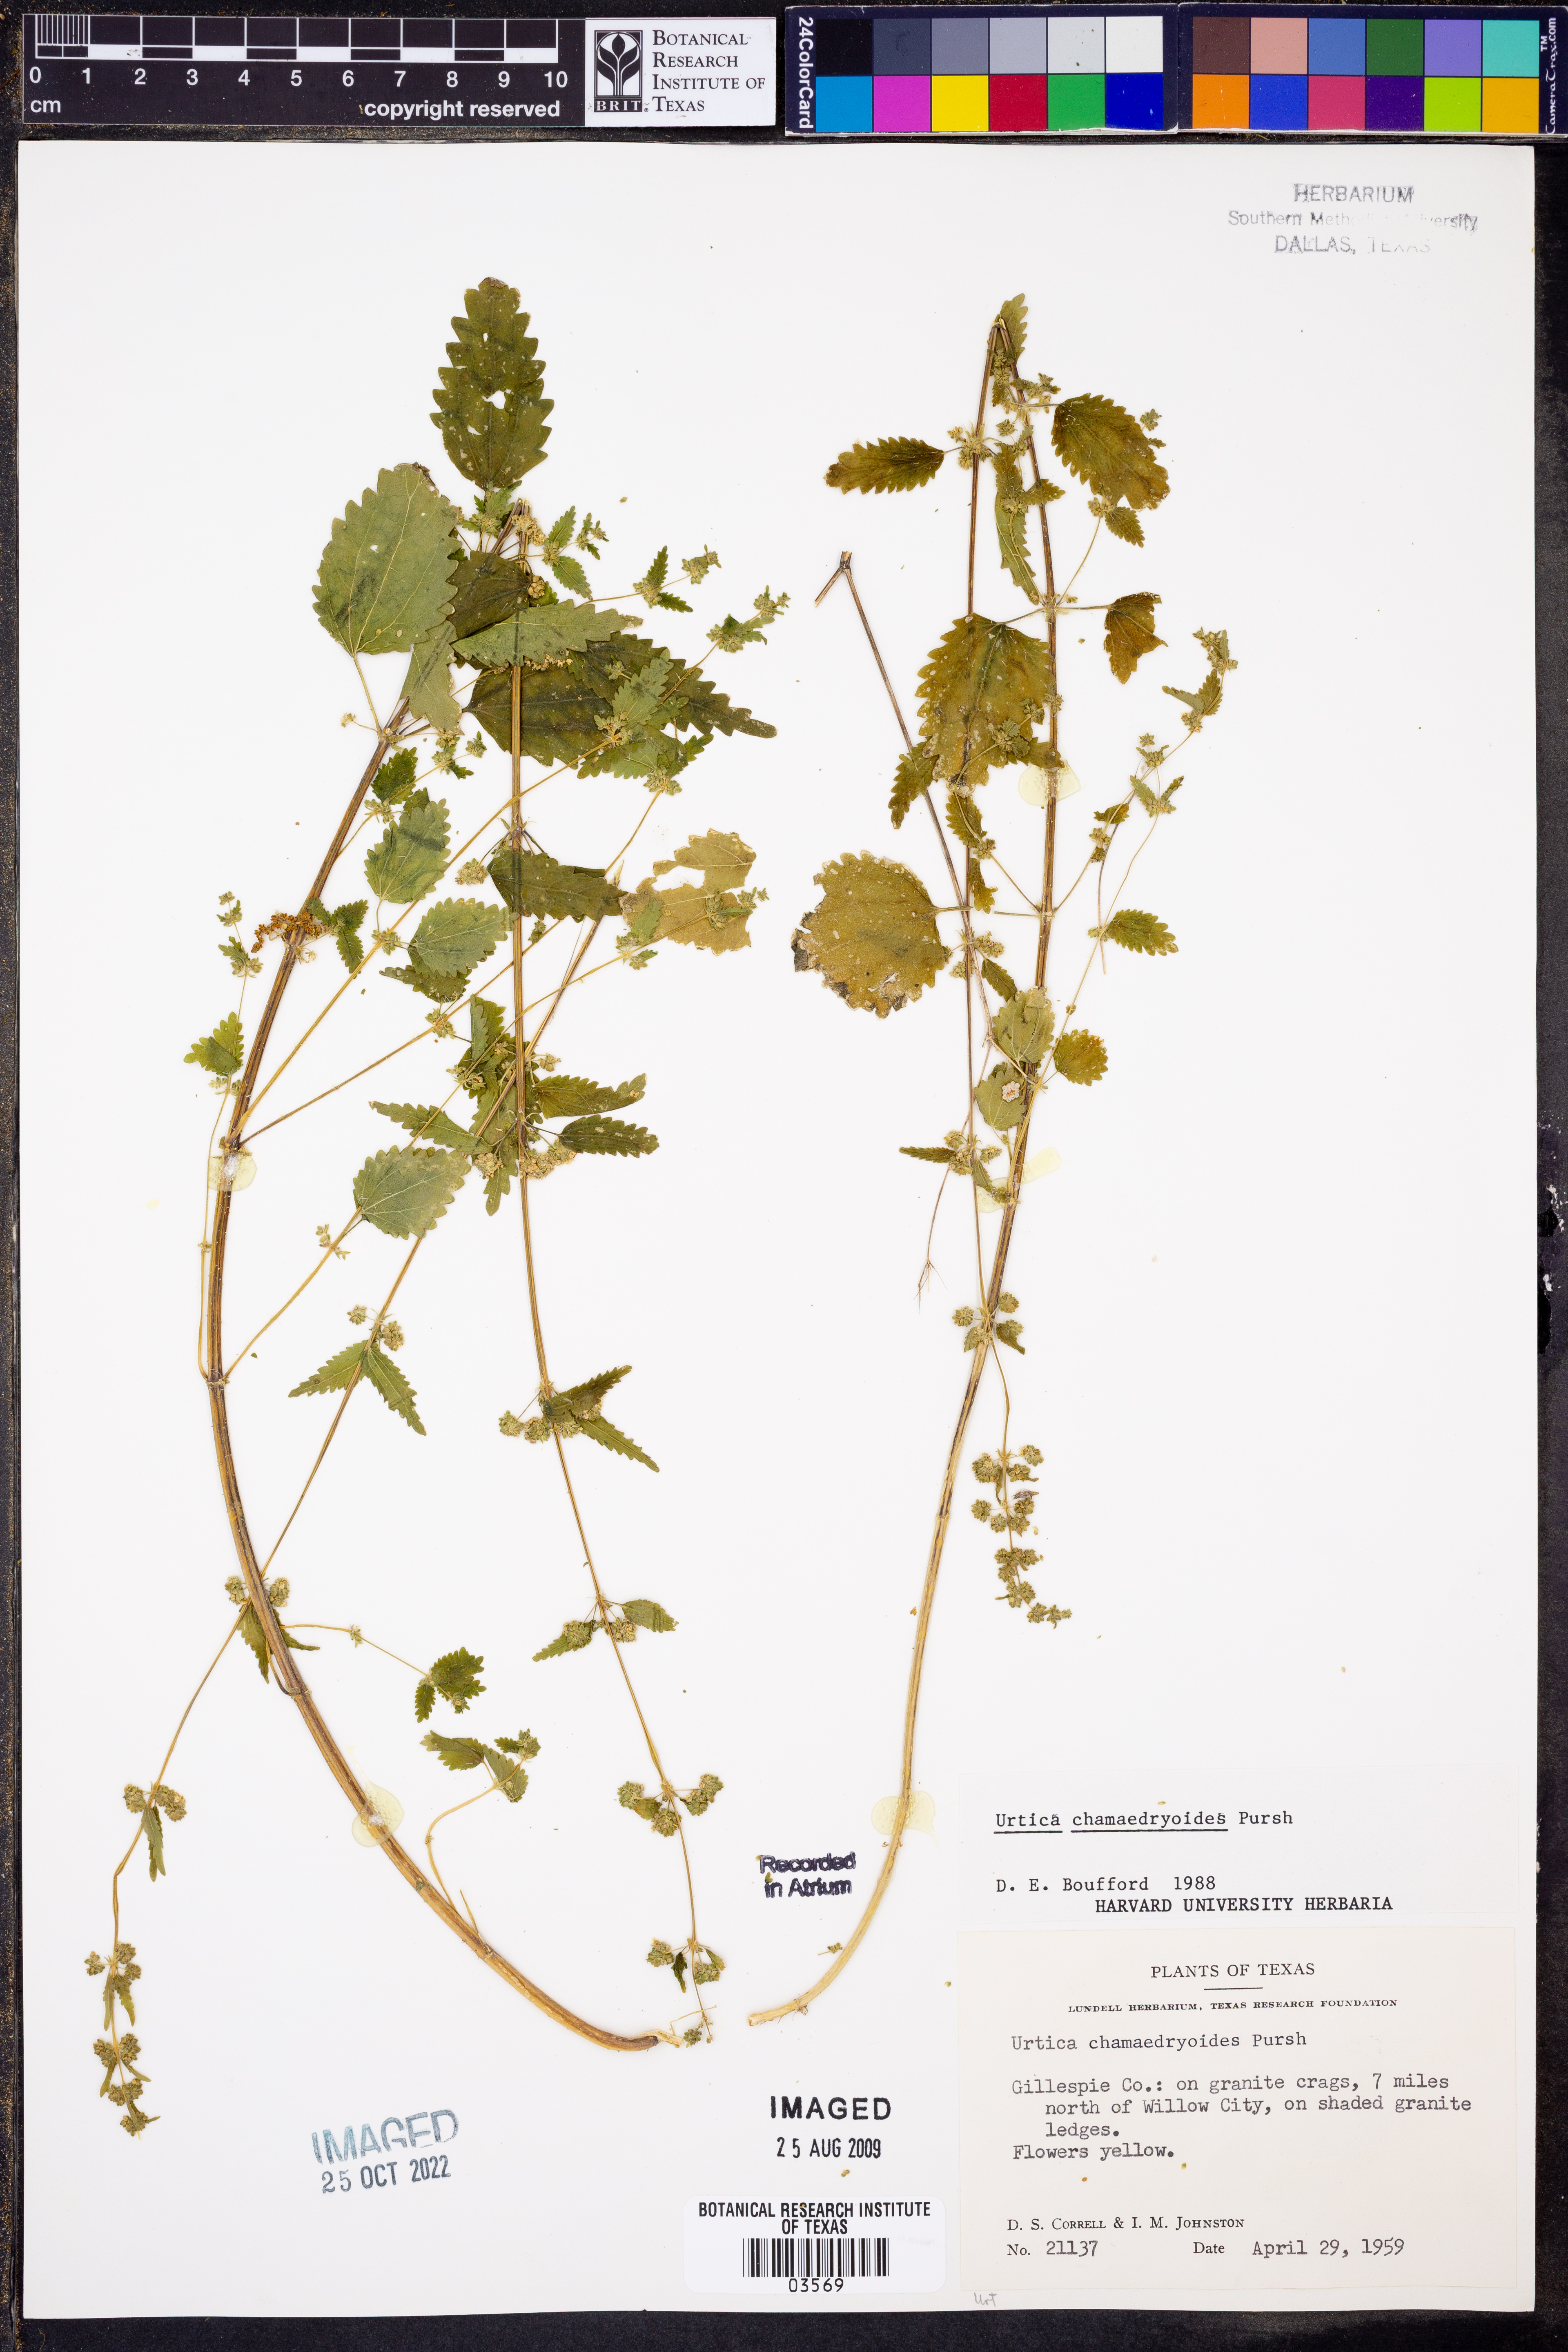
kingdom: Plantae
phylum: Tracheophyta
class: Magnoliopsida
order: Rosales
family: Urticaceae
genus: Urtica
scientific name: Urtica chamaedryoides
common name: Heart-leaf nettle
